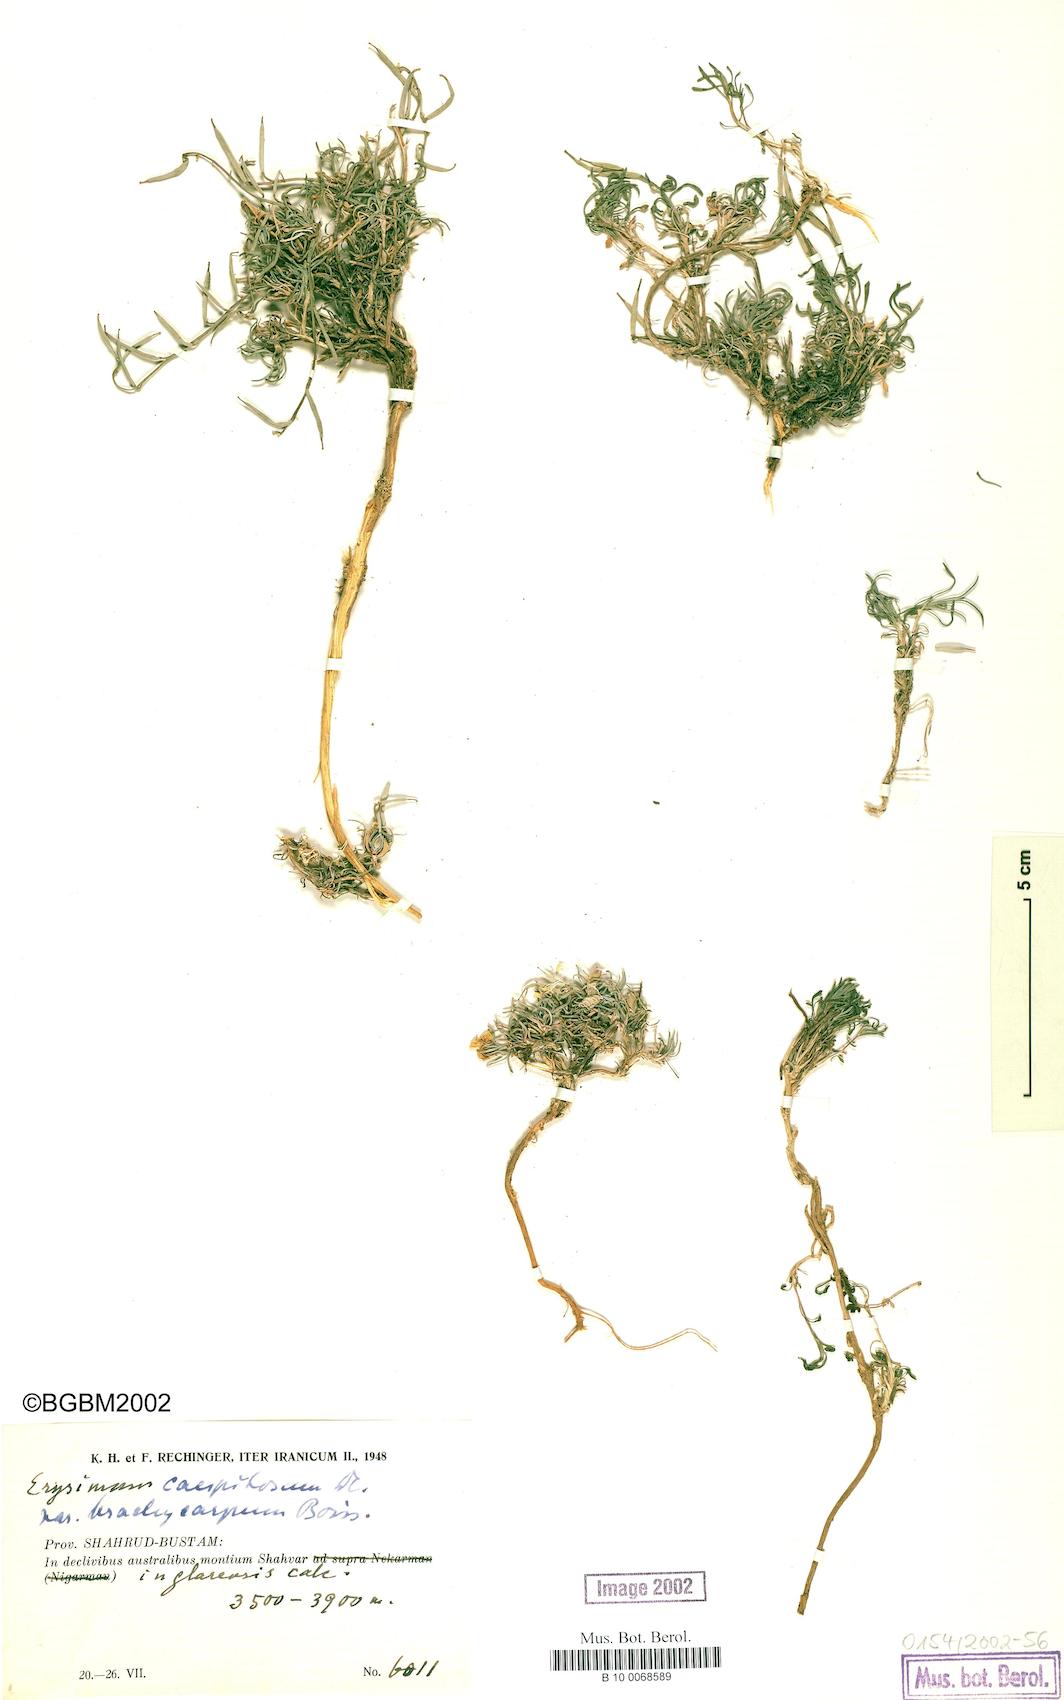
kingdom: Plantae
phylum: Tracheophyta
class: Magnoliopsida
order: Brassicales
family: Brassicaceae
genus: Erysimum
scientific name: Erysimum caespitosum
